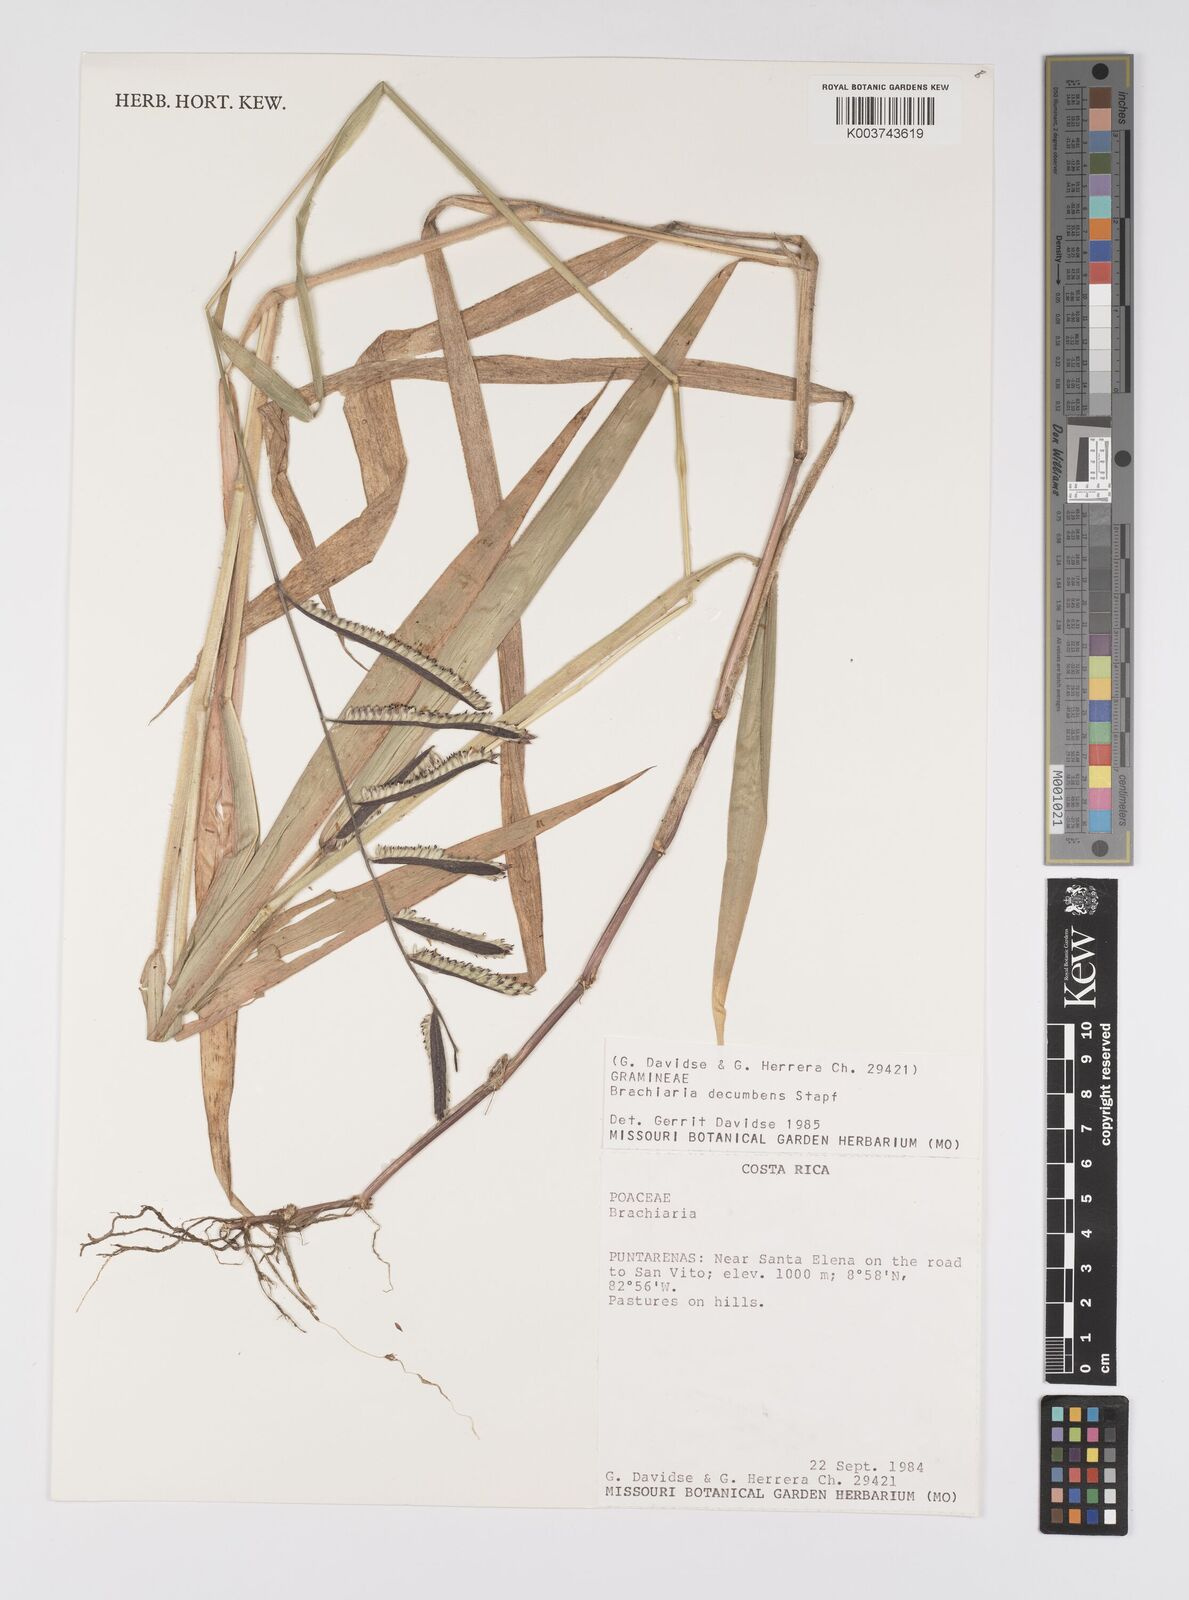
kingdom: Plantae
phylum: Tracheophyta
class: Liliopsida
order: Poales
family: Poaceae
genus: Brachiaria
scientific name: Brachiaria
